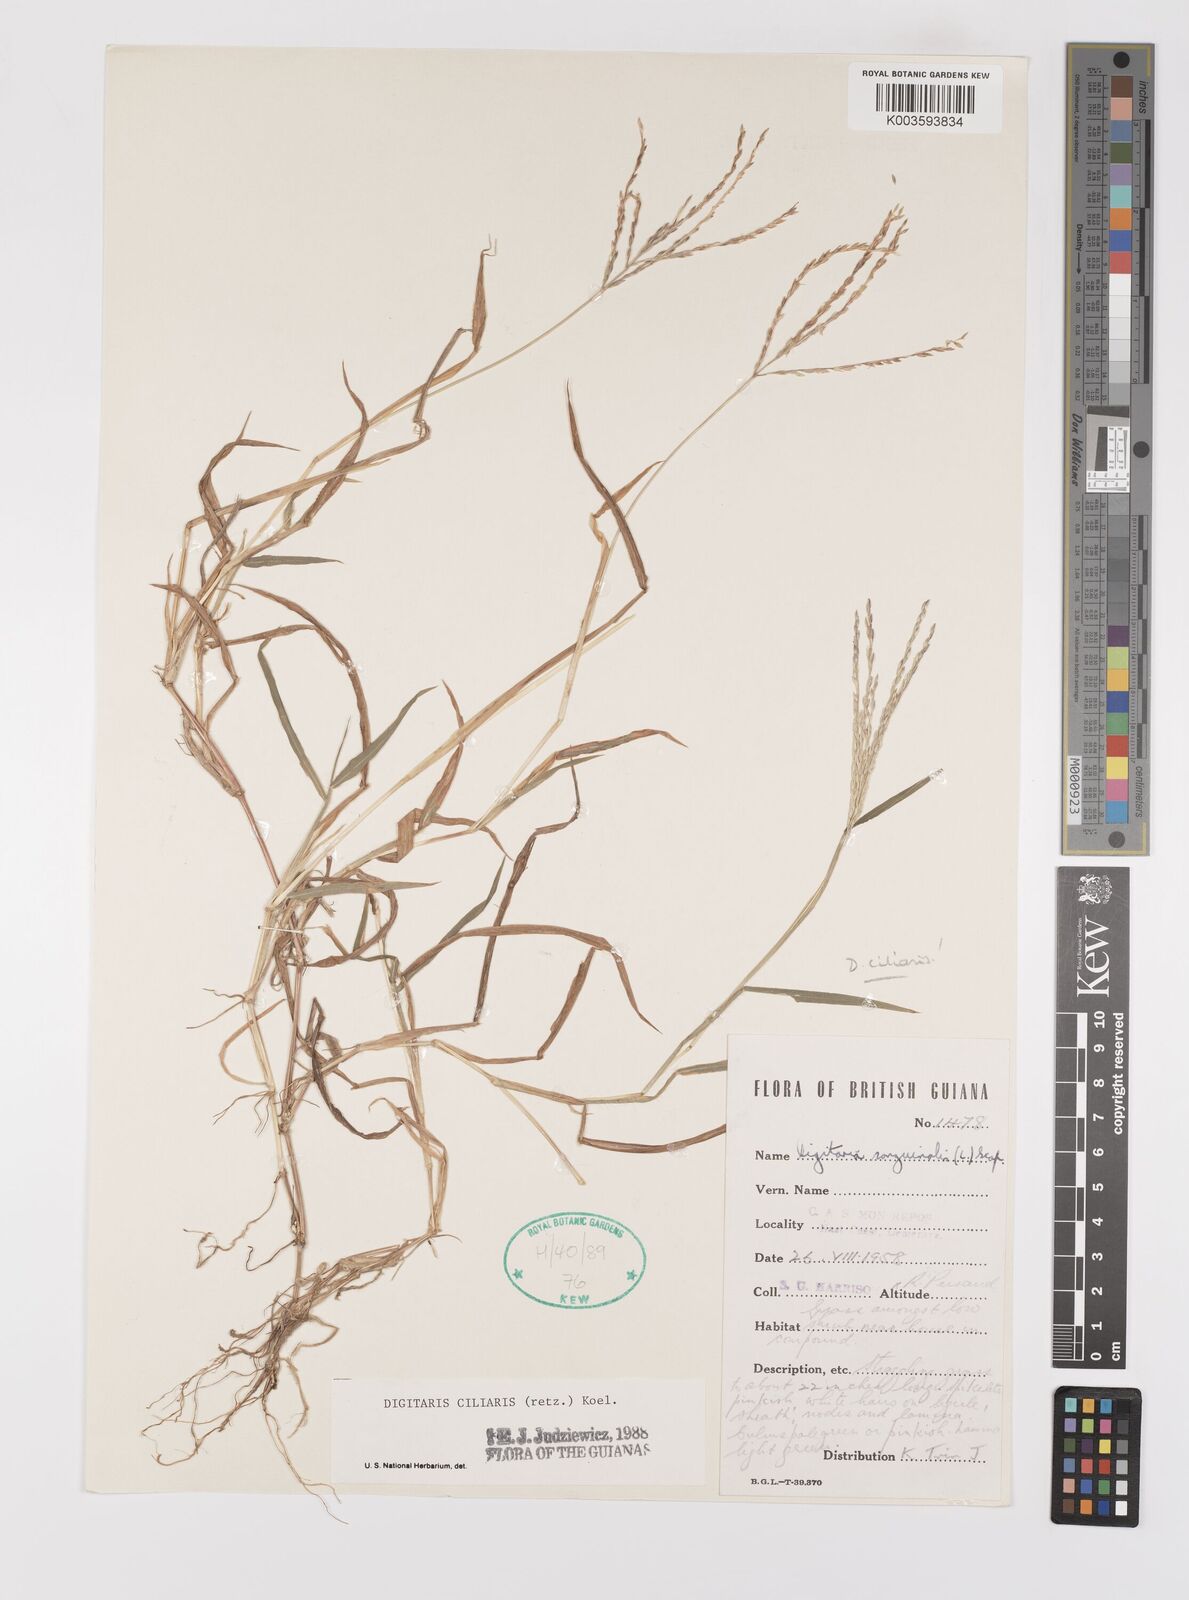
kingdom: Plantae
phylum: Tracheophyta
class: Liliopsida
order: Poales
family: Poaceae
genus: Digitaria
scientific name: Digitaria ciliaris
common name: Tropical finger-grass
